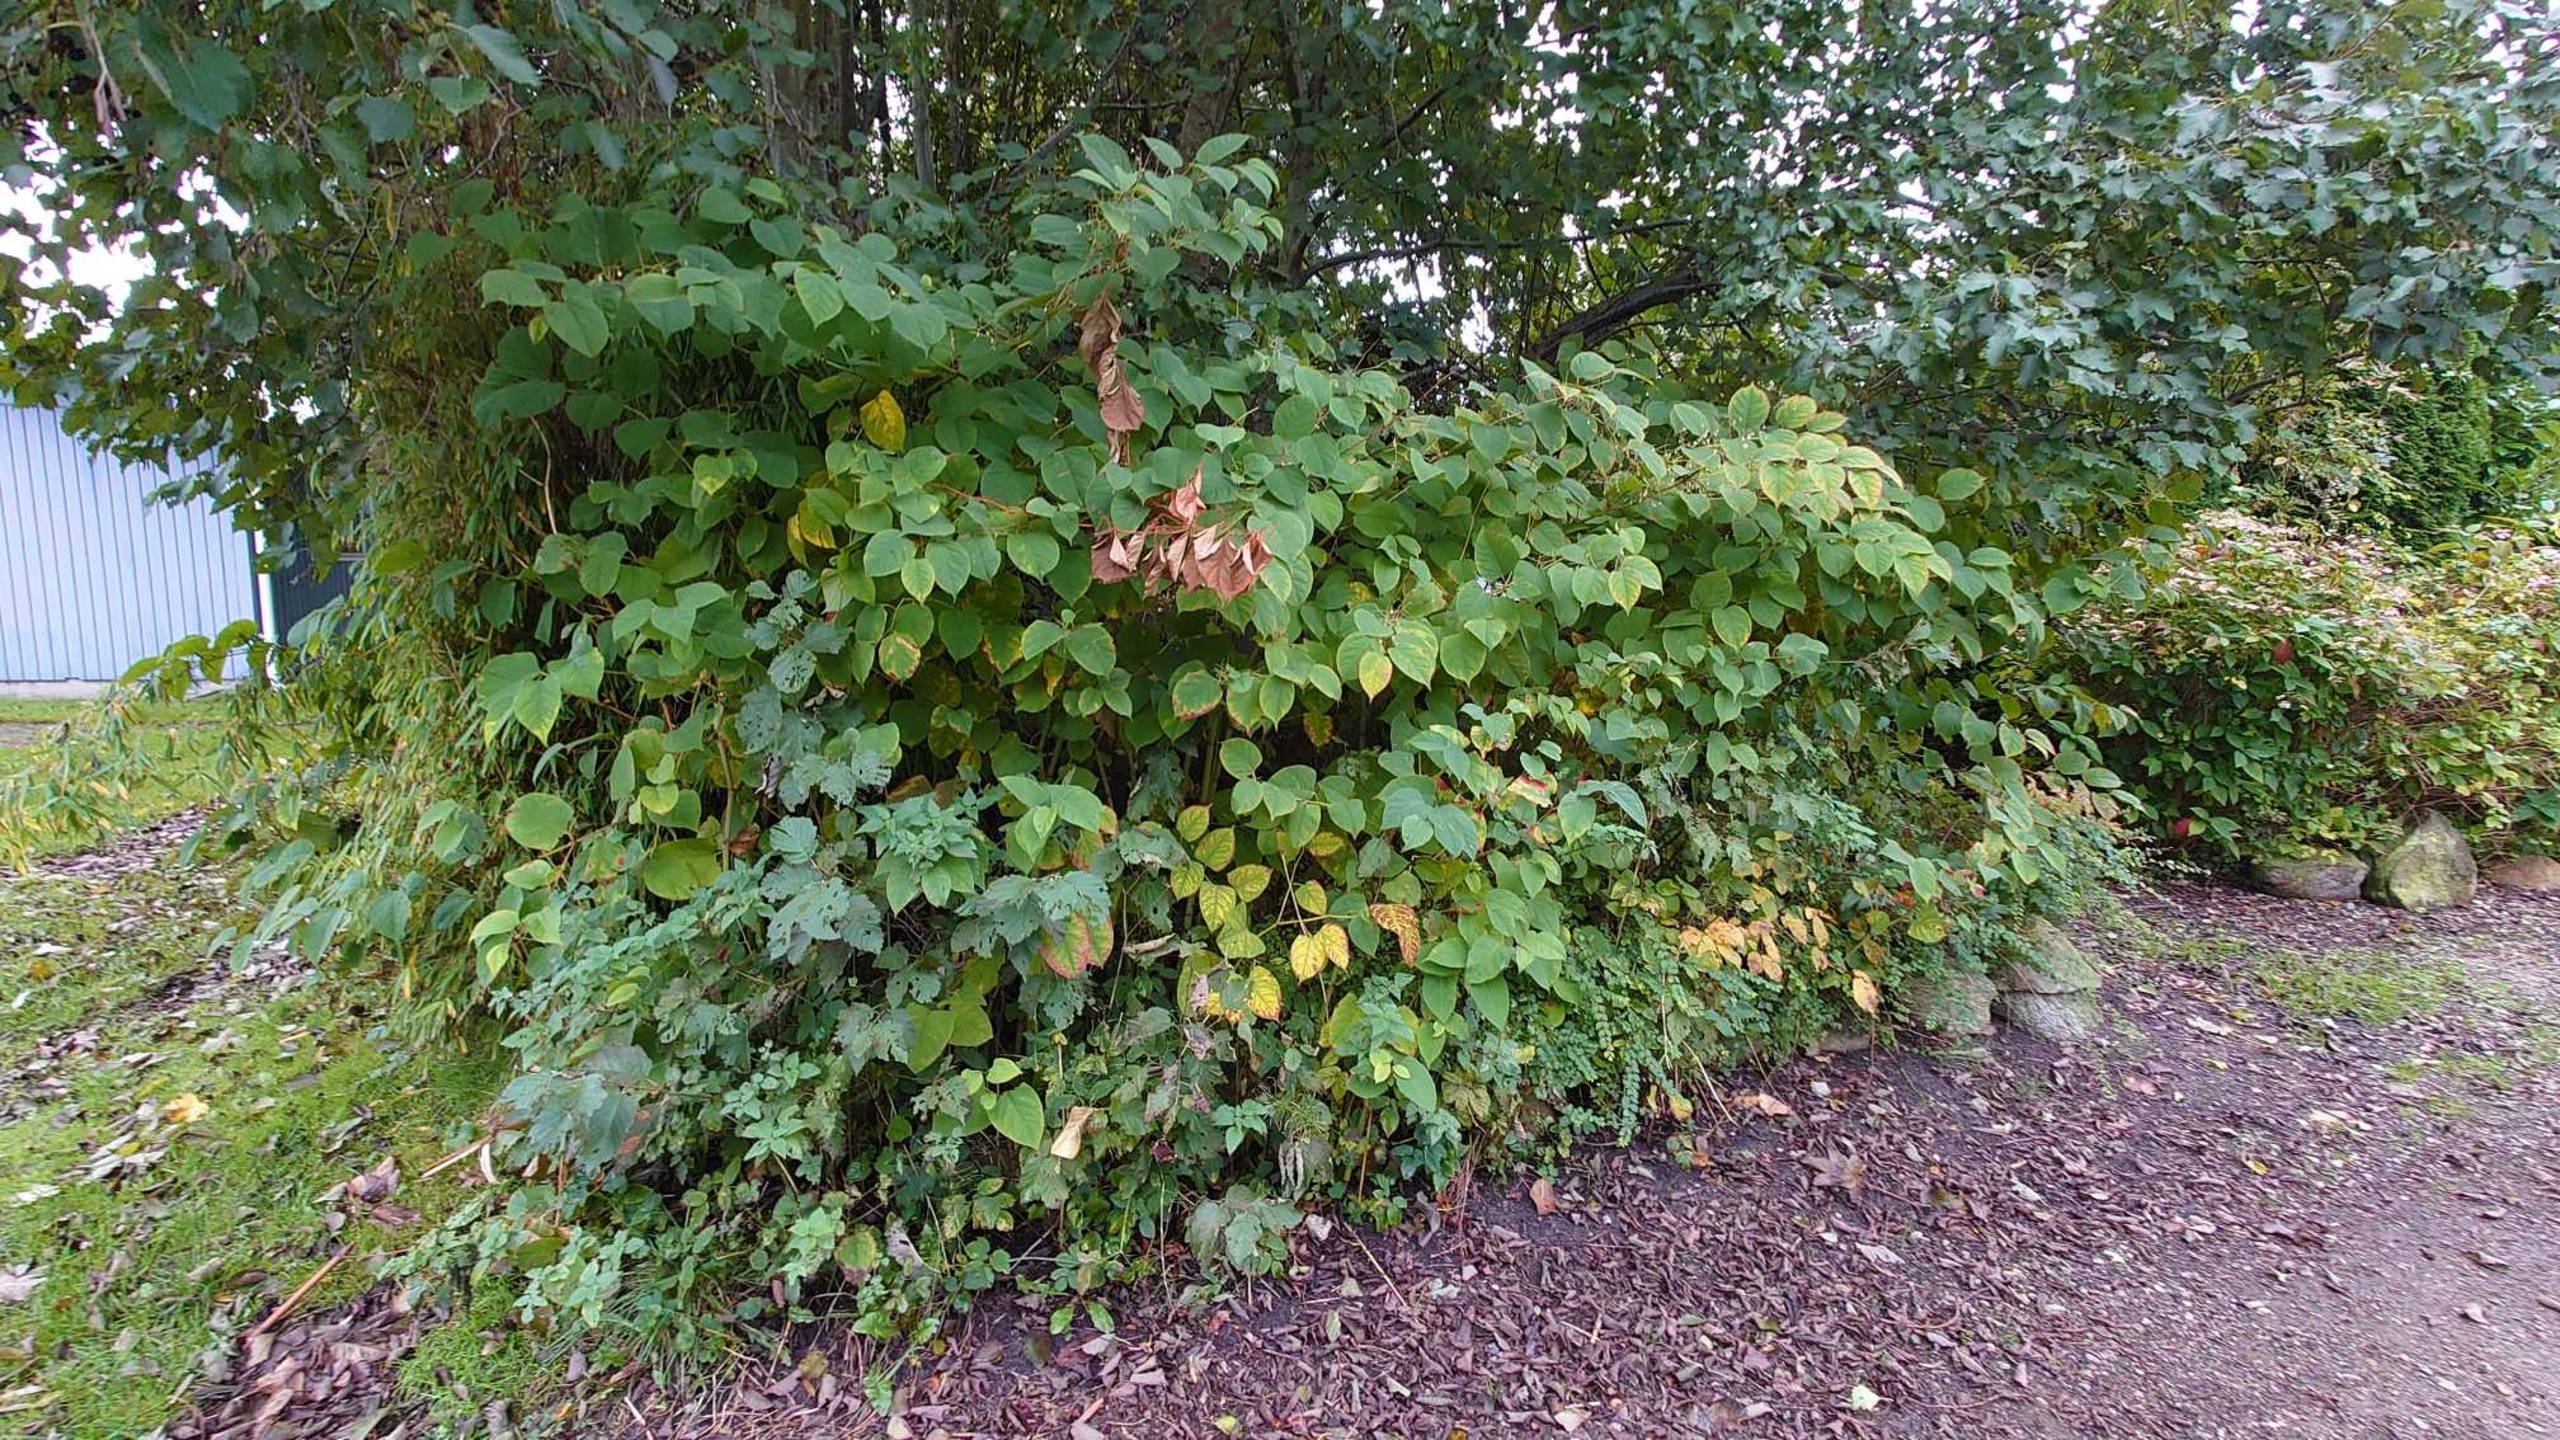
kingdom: Plantae
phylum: Tracheophyta
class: Magnoliopsida
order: Caryophyllales
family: Polygonaceae
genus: Reynoutria
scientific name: Reynoutria japonica
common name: Japan-pileurt
